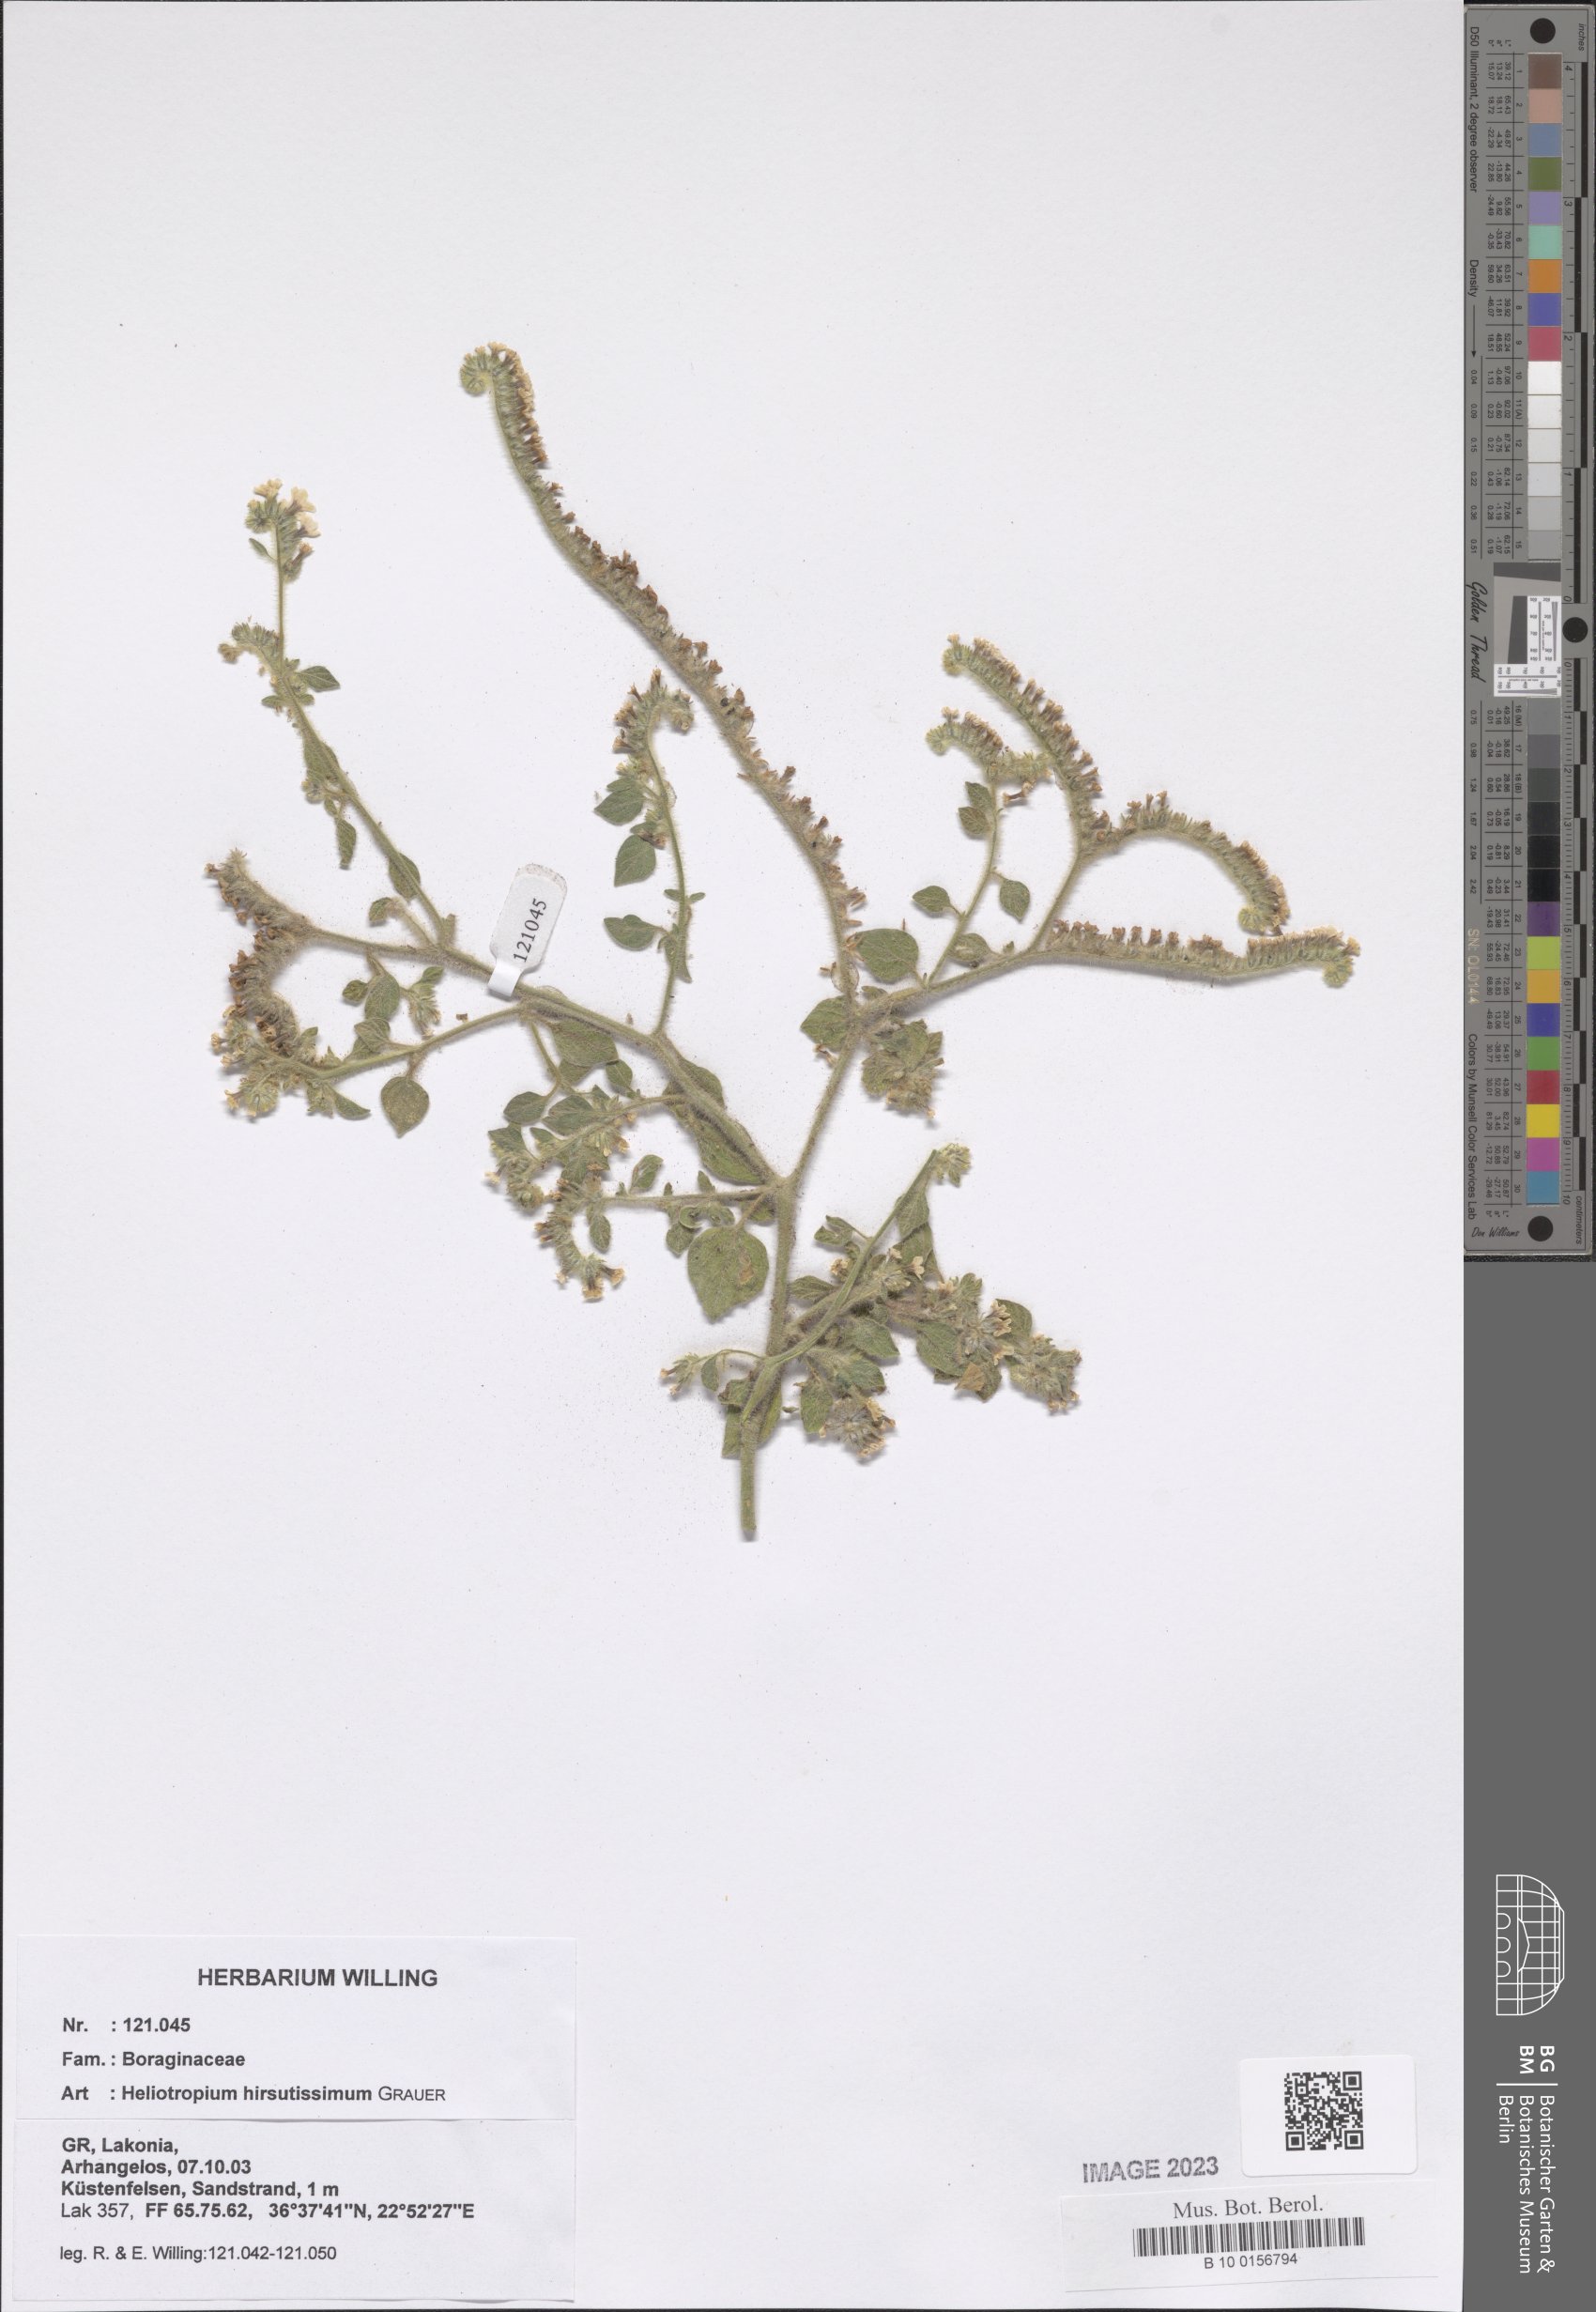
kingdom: Plantae
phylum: Tracheophyta
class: Magnoliopsida
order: Boraginales
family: Heliotropiaceae
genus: Heliotropium
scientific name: Heliotropium hirsutissimum
